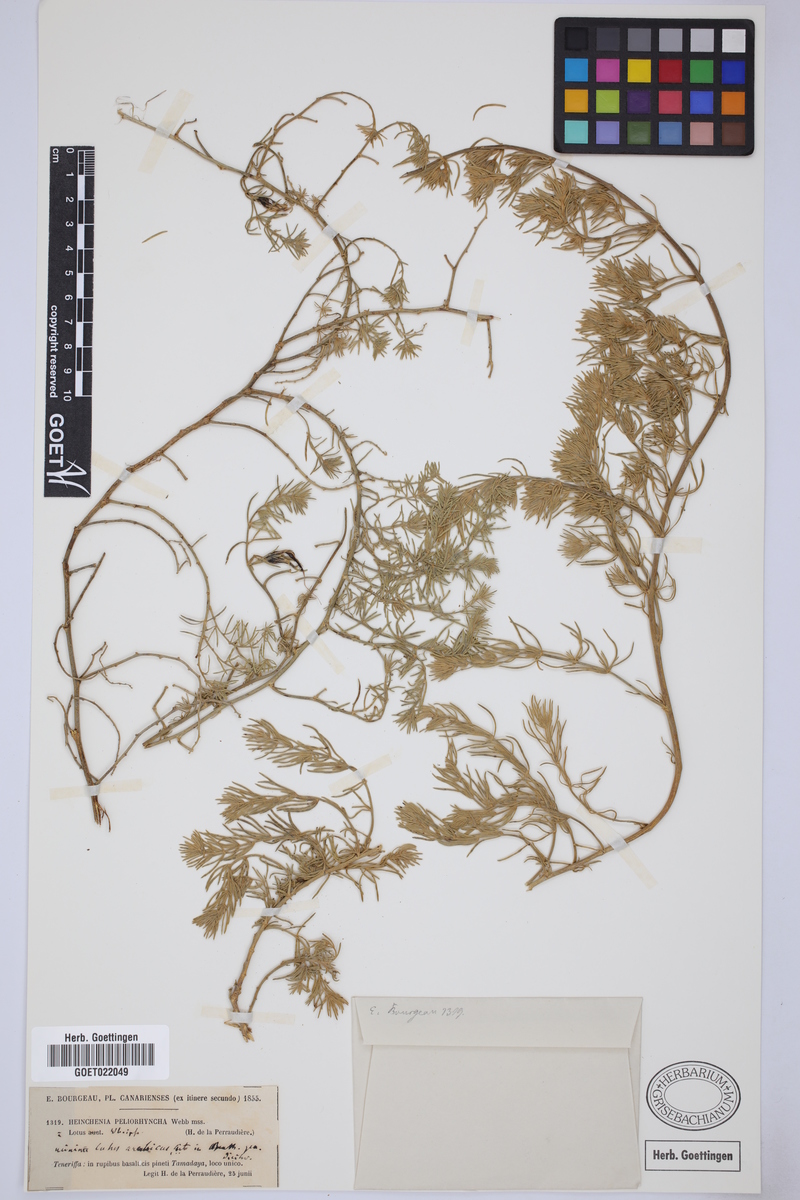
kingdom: Plantae
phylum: Tracheophyta
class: Magnoliopsida
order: Fabales
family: Fabaceae
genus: Lotus
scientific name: Lotus berthelotii
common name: Coralgem
